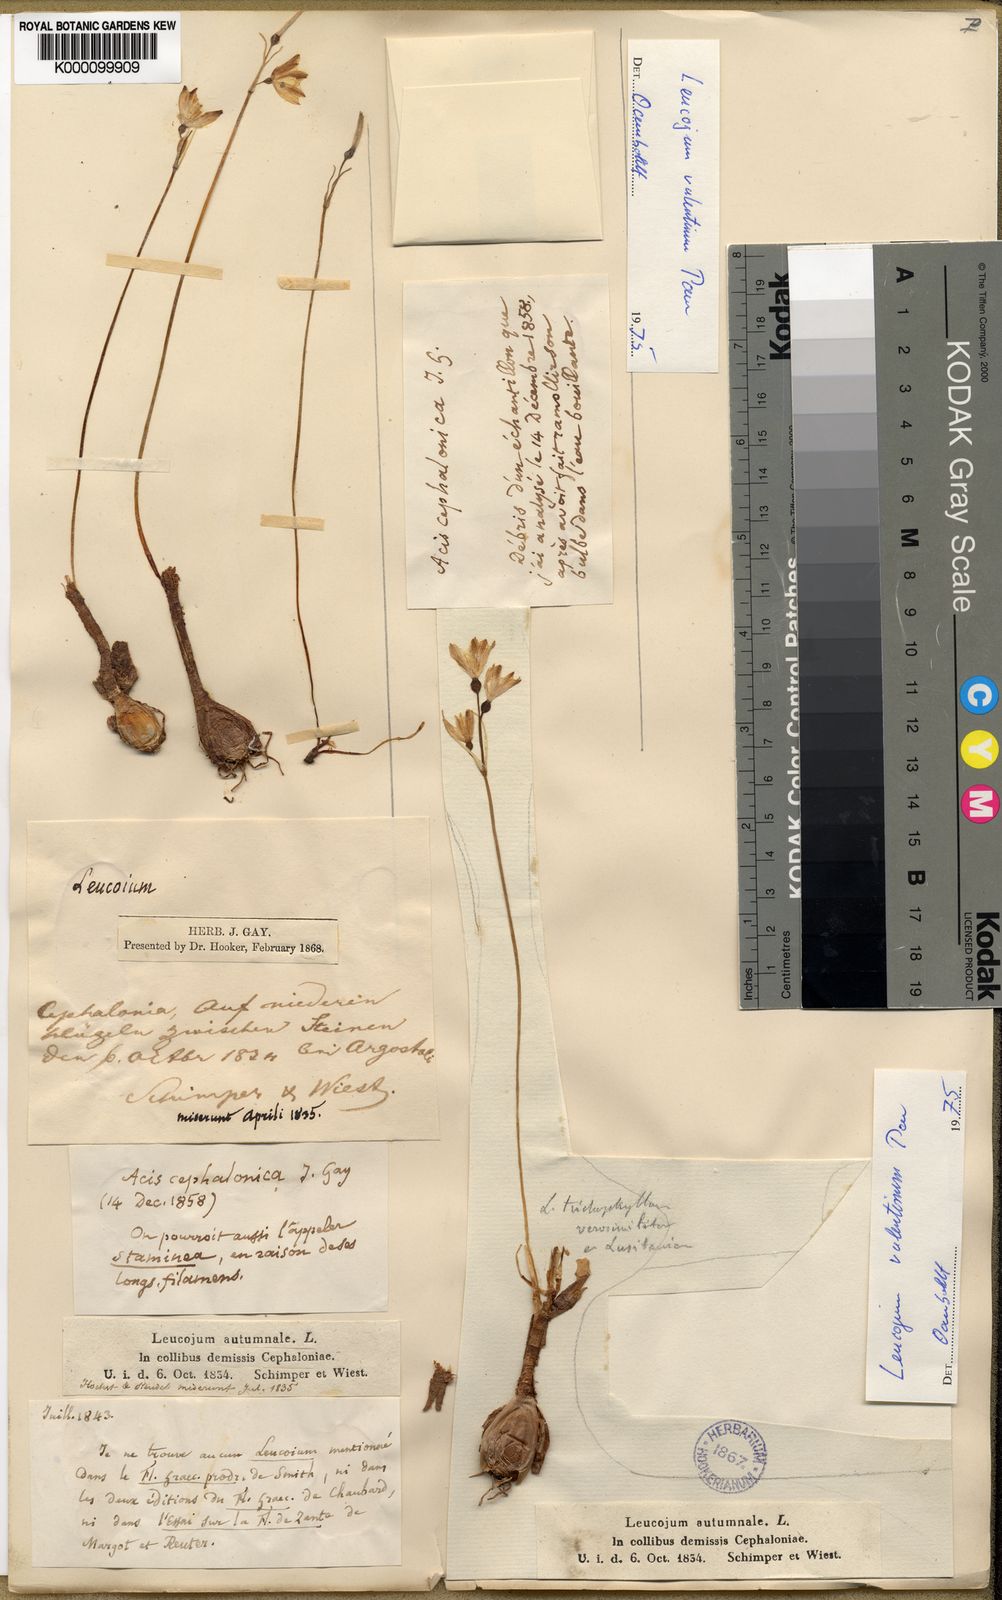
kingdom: Plantae
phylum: Tracheophyta
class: Liliopsida
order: Asparagales
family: Amaryllidaceae
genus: Acis
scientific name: Acis ionica
